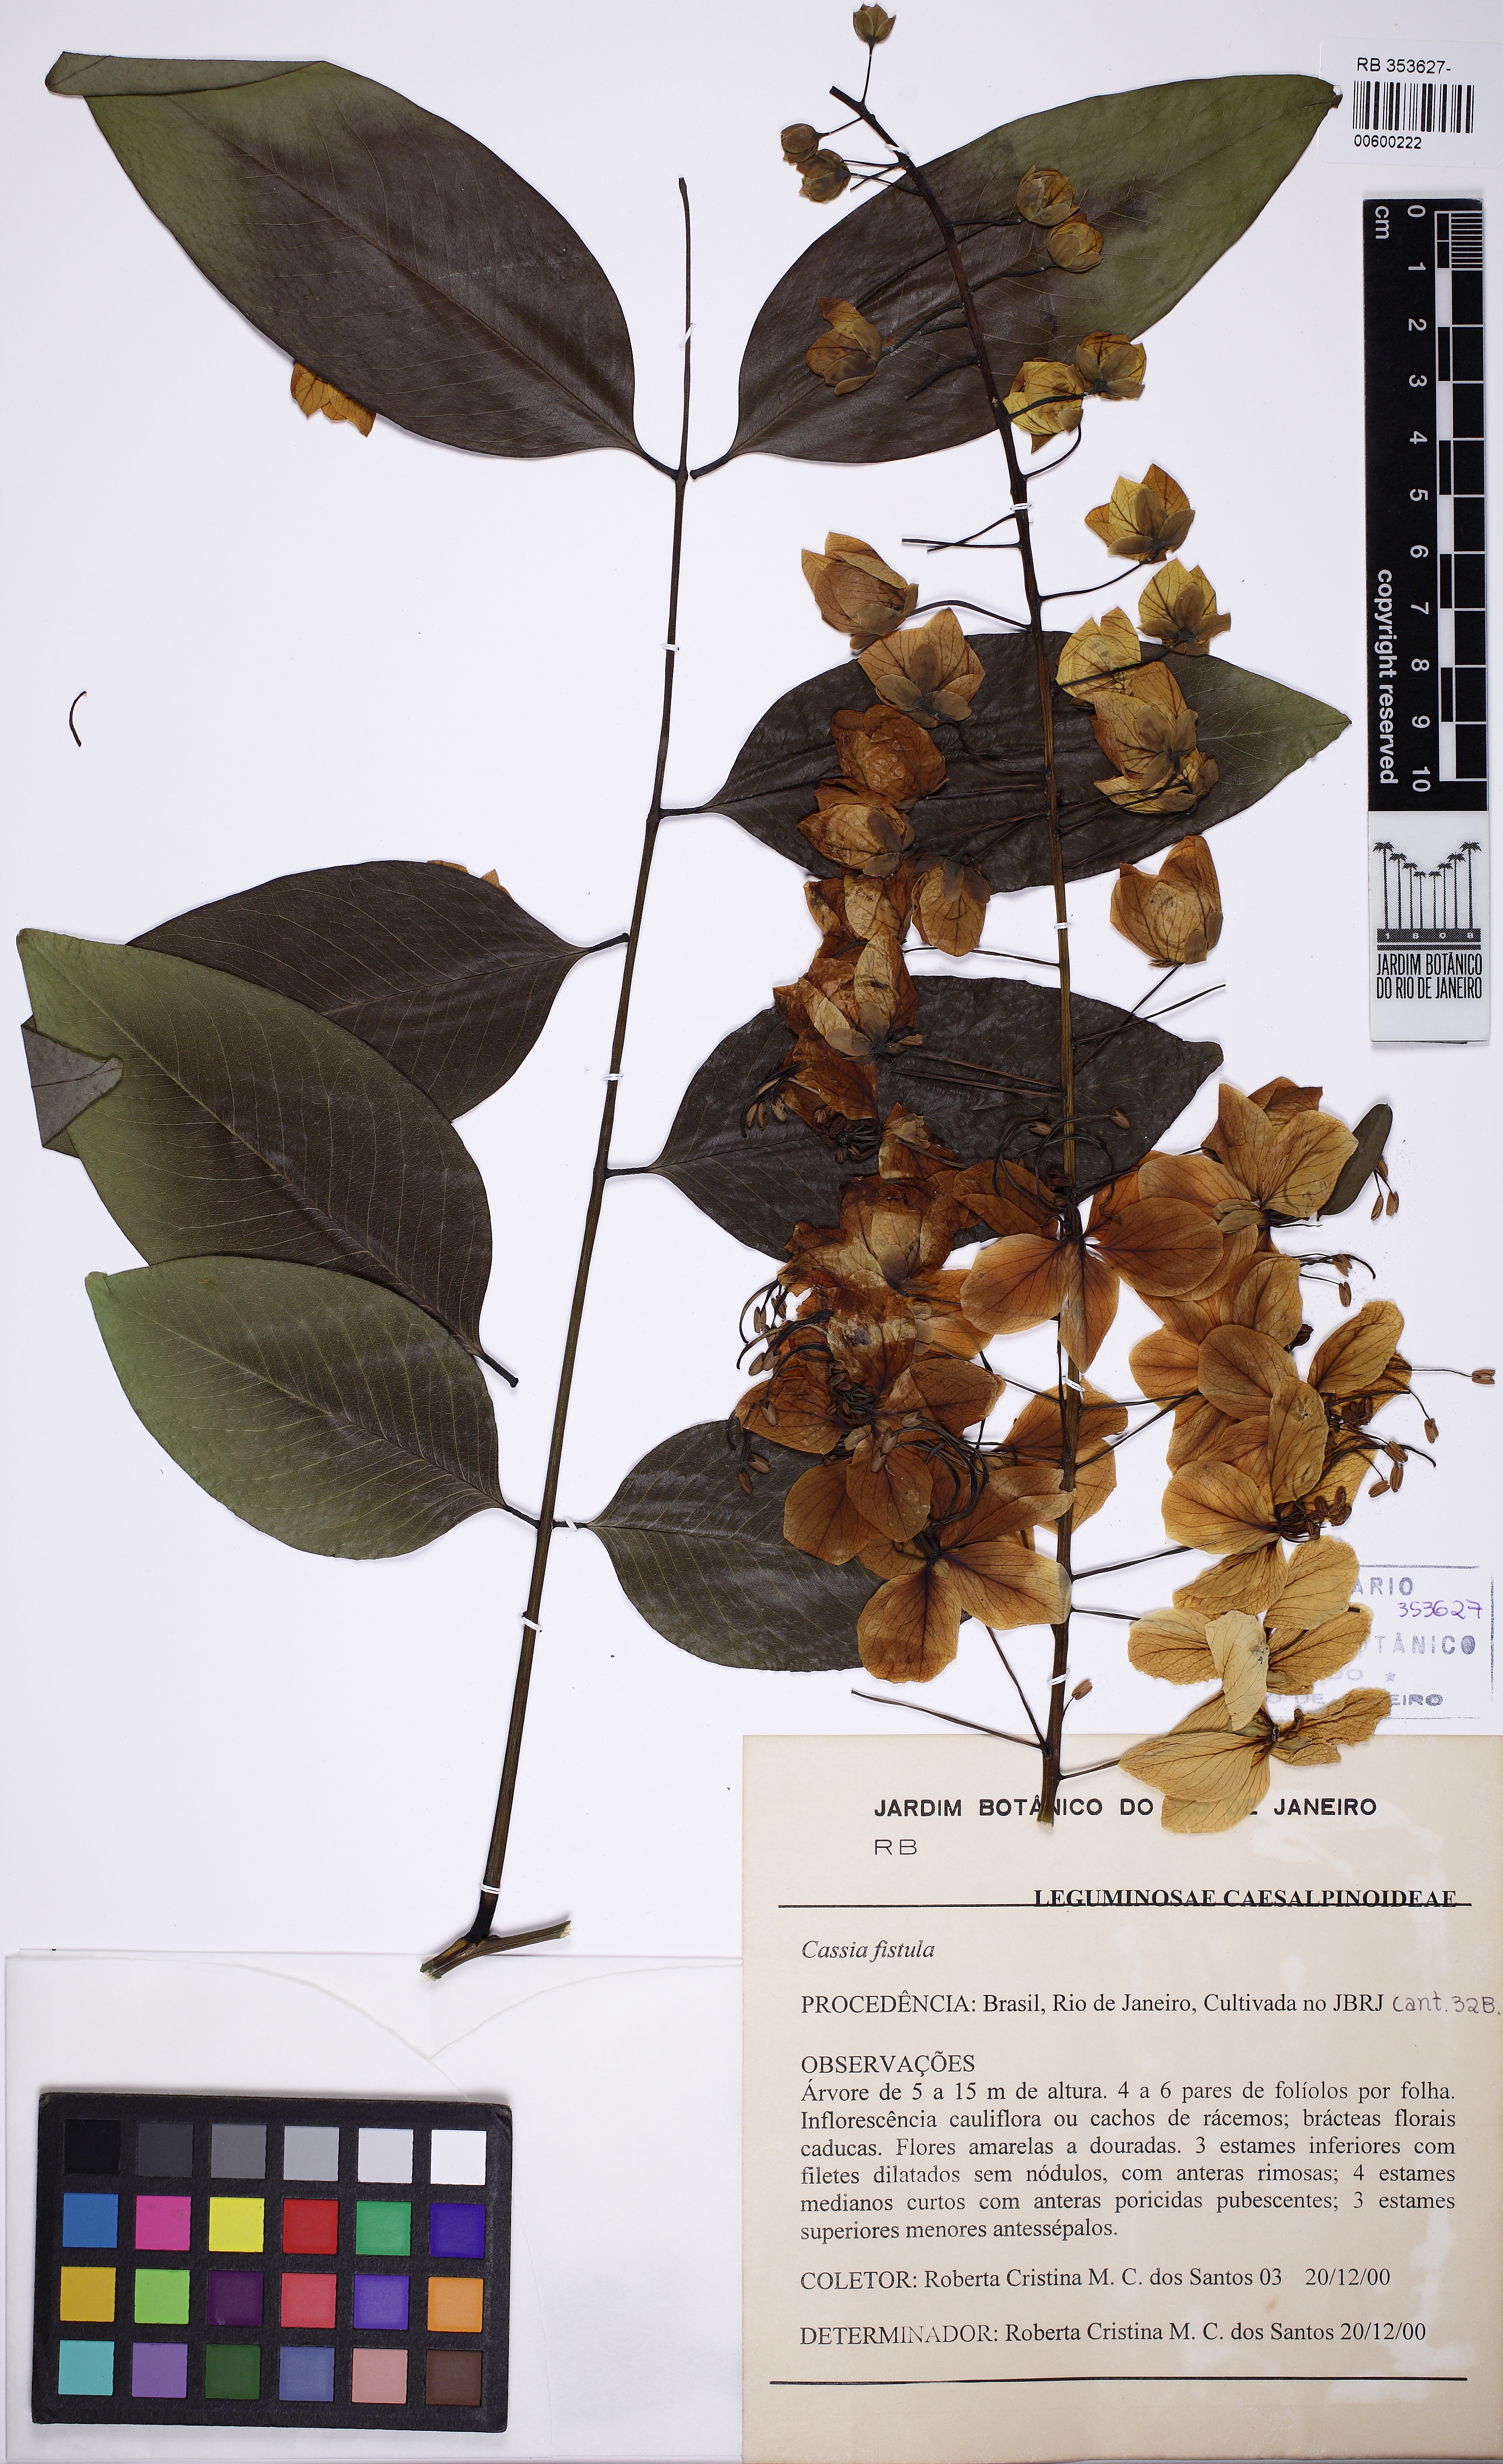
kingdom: Plantae
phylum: Tracheophyta
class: Magnoliopsida
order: Fabales
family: Fabaceae
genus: Cassia
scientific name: Cassia fistula
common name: Golden shower
